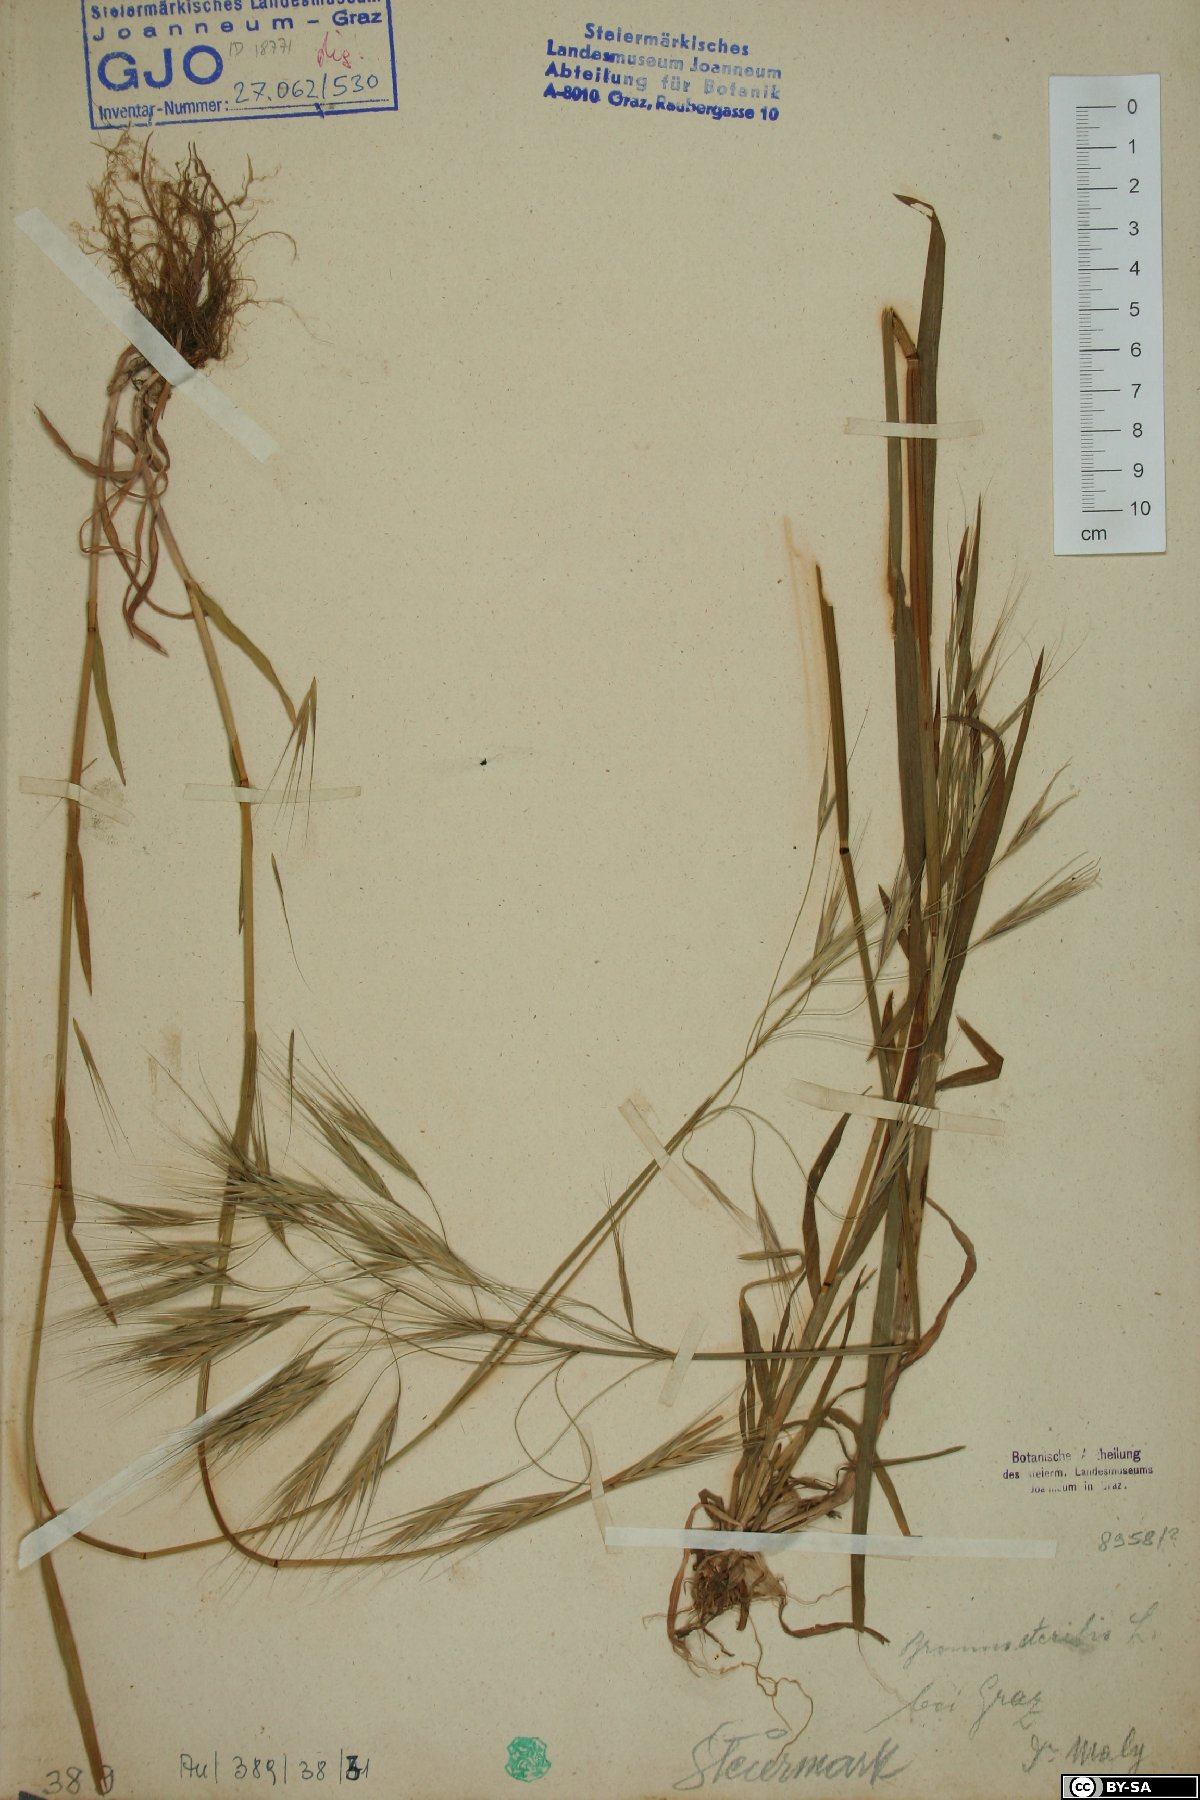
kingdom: Plantae
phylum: Tracheophyta
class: Liliopsida
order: Poales
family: Poaceae
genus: Bromus
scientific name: Bromus sterilis
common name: Poverty brome
